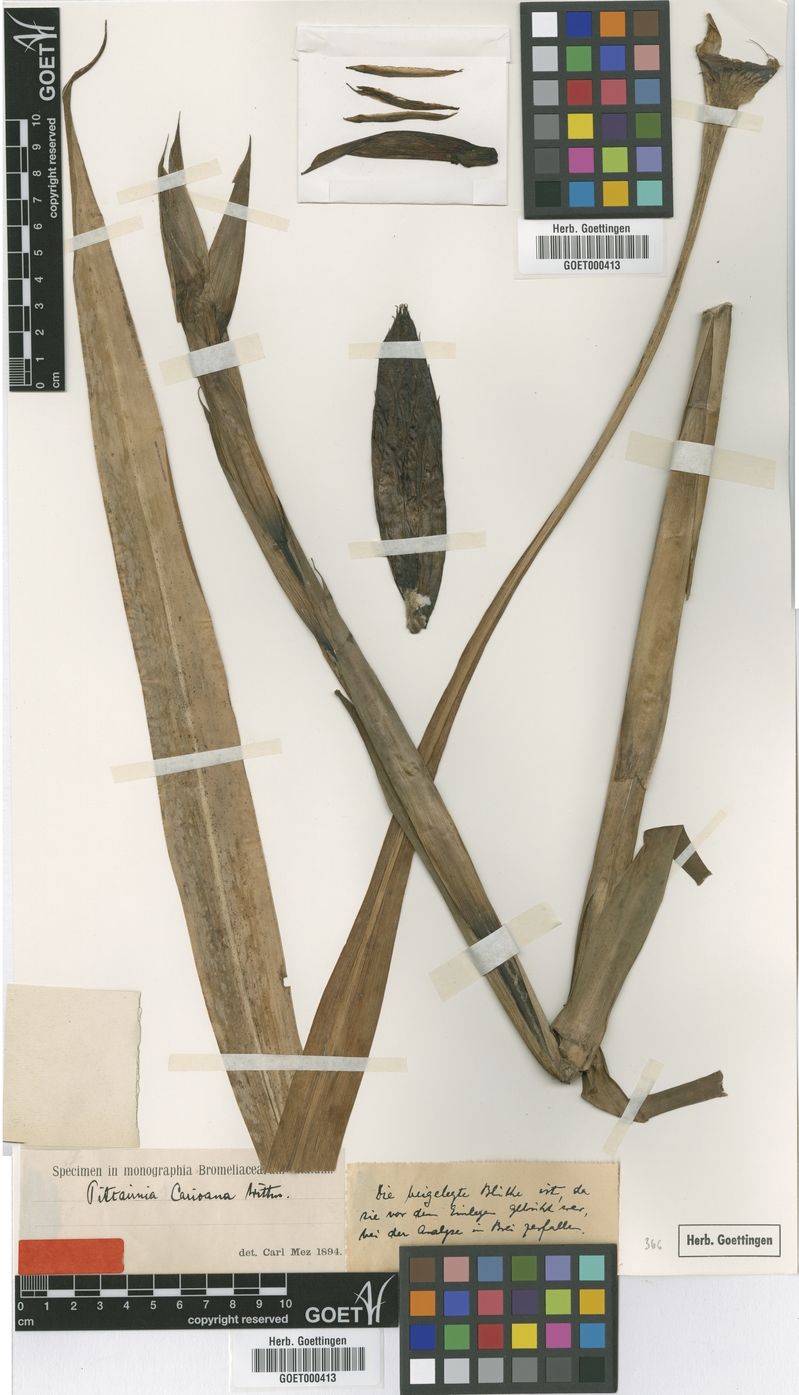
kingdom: Plantae
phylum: Tracheophyta
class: Liliopsida
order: Poales
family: Bromeliaceae
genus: Pitcairnia
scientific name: Pitcairnia carioana
